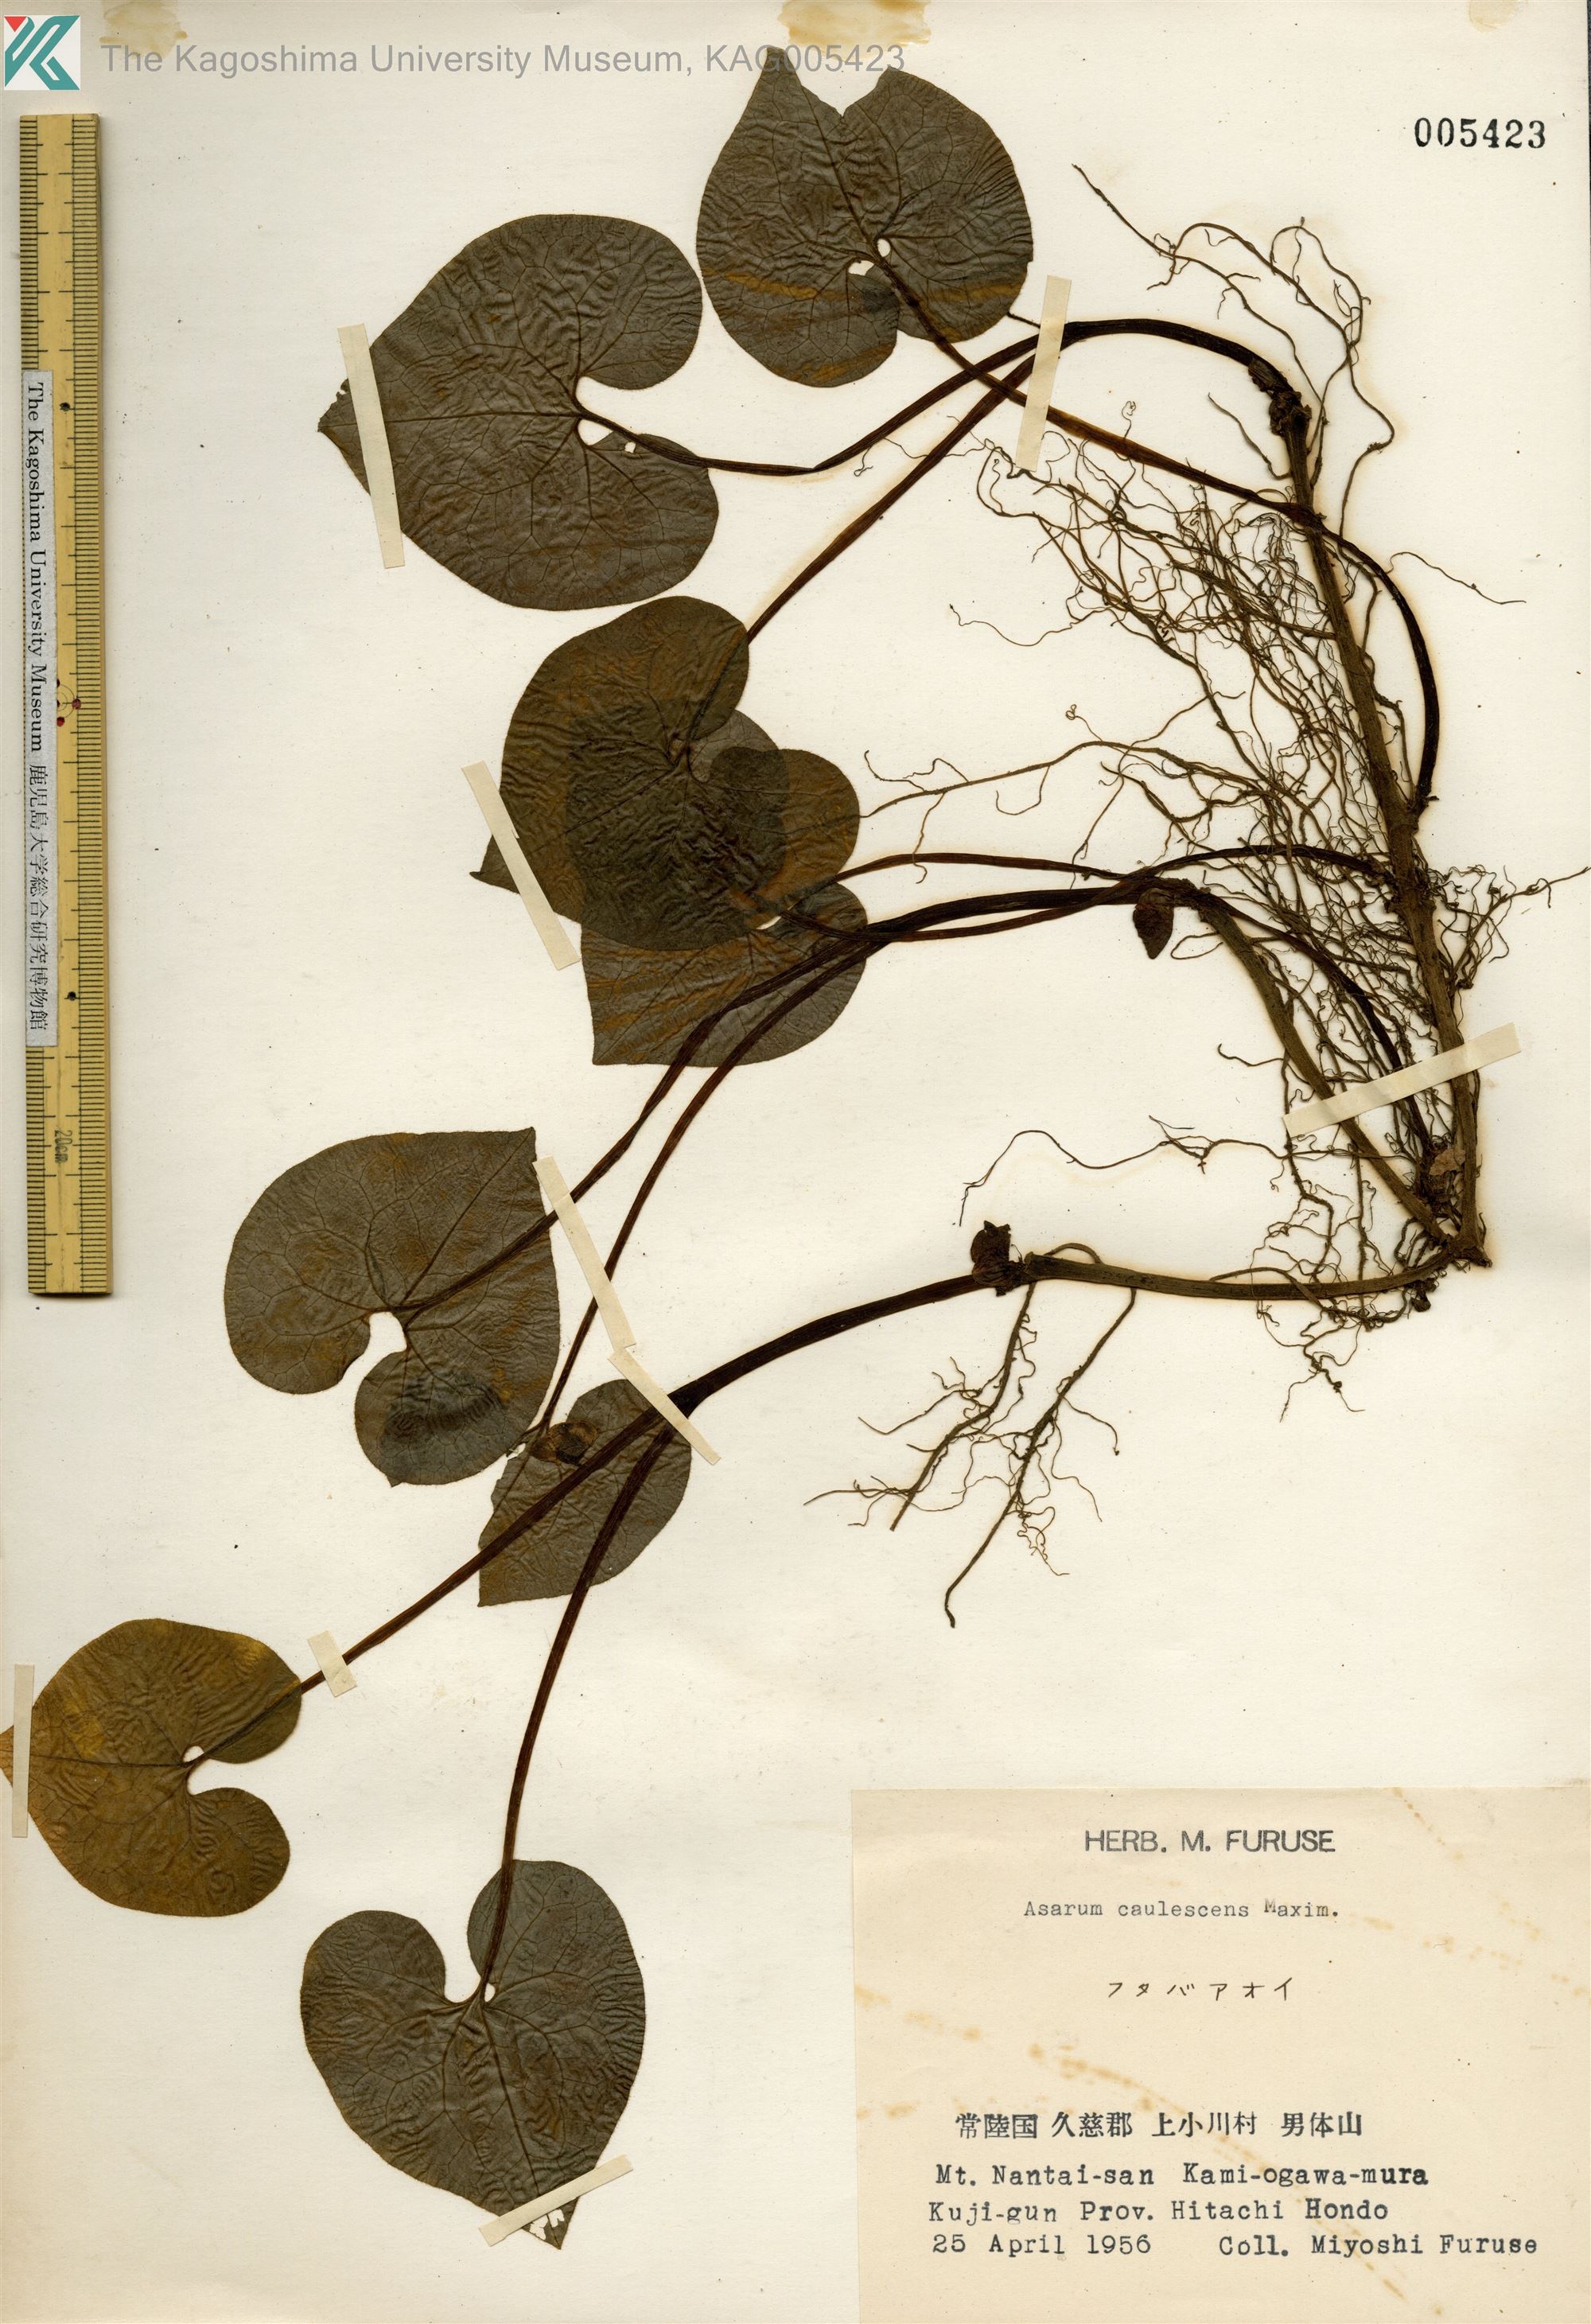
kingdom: Plantae
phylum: Tracheophyta
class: Magnoliopsida
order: Piperales
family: Aristolochiaceae
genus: Asarum
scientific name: Asarum caulescens
